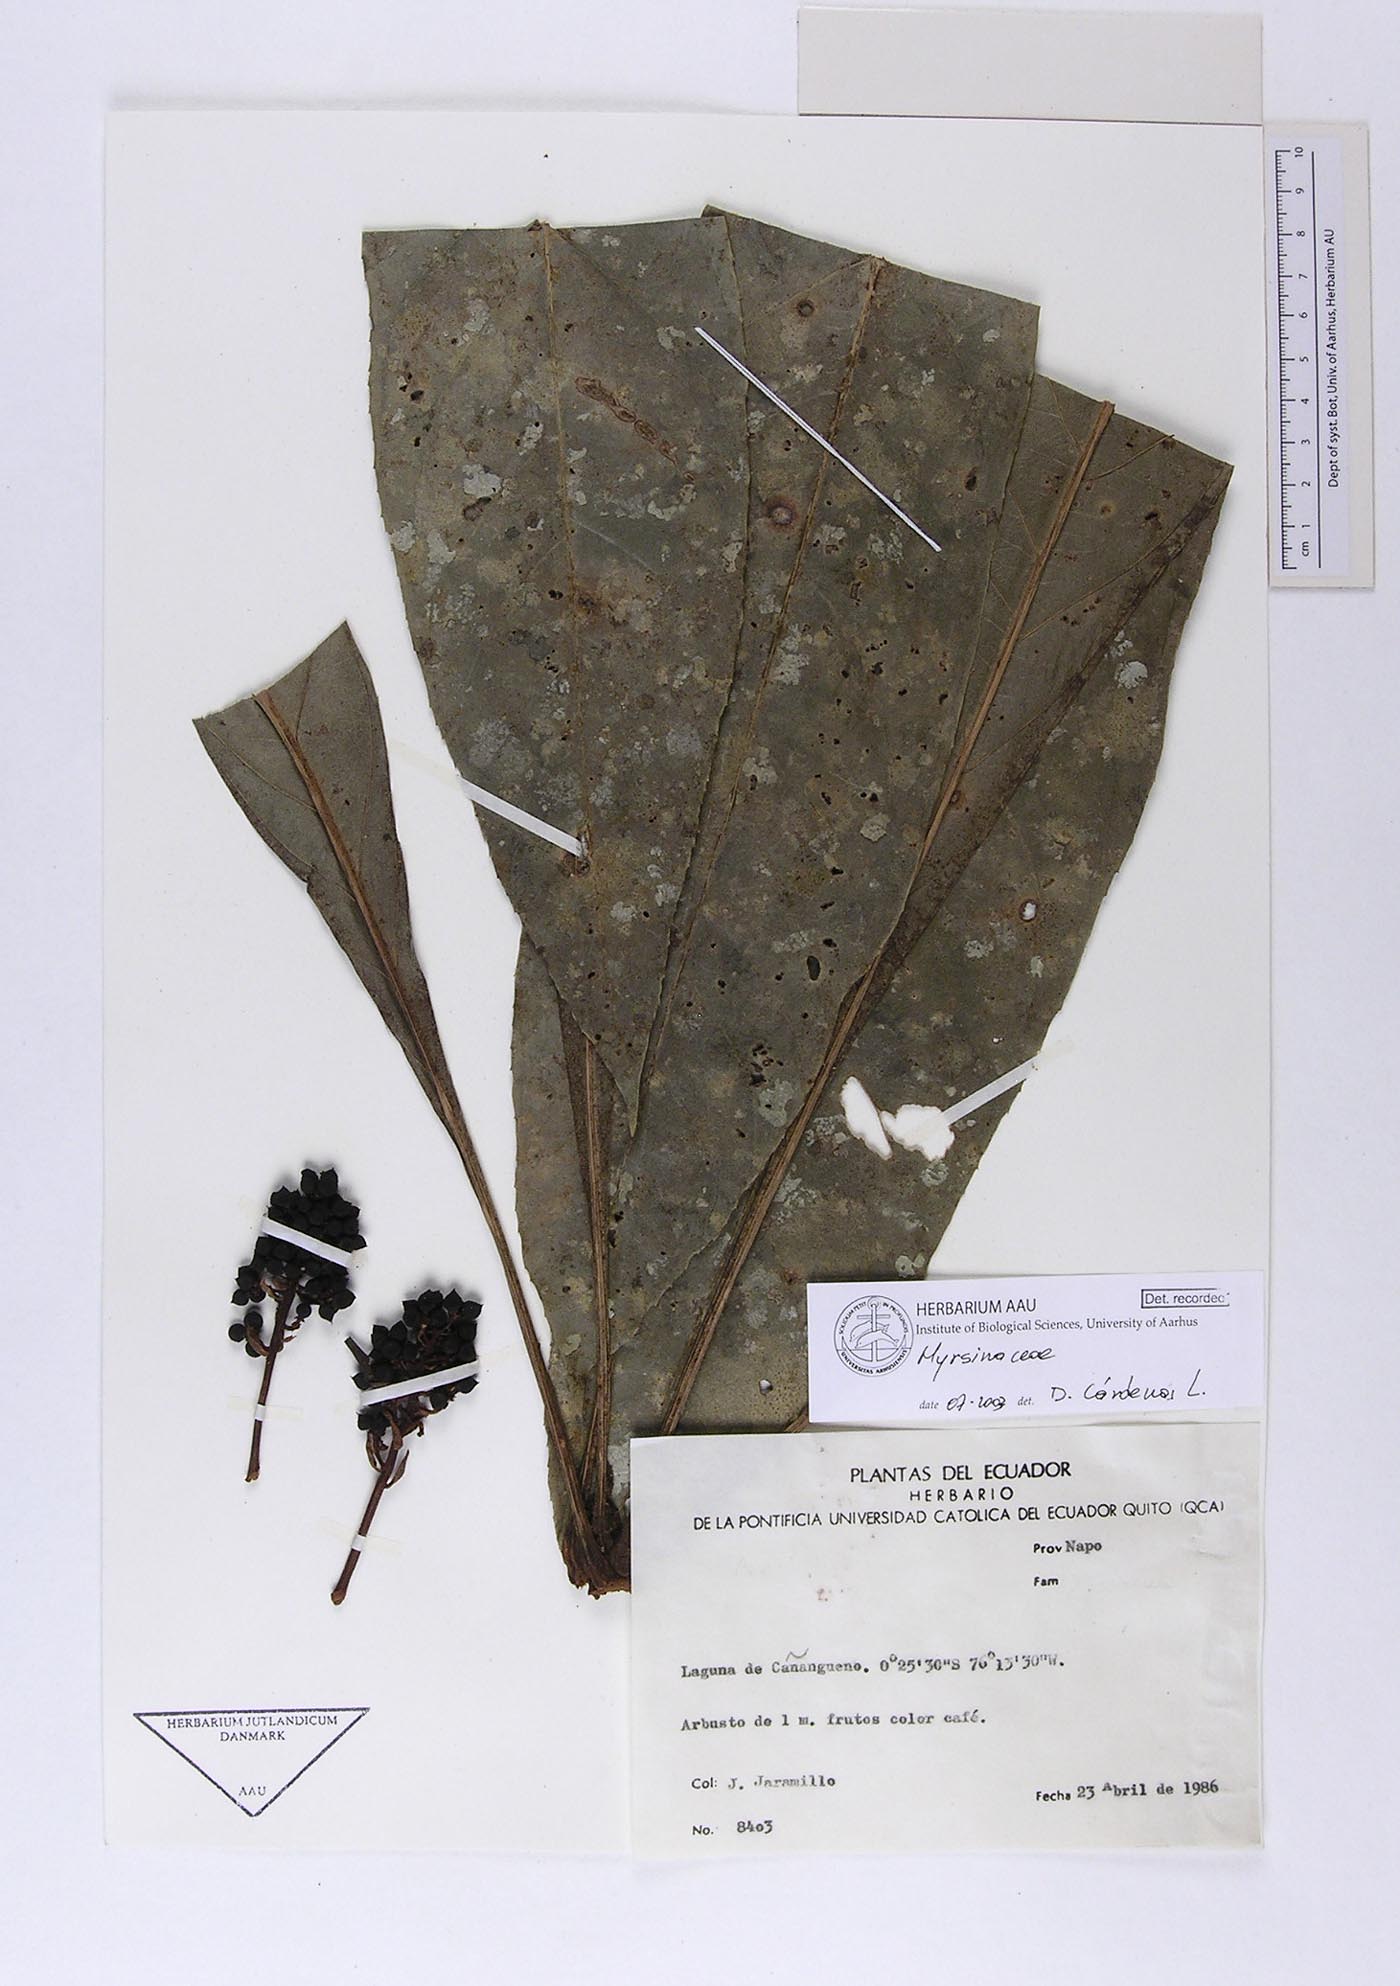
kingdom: Plantae
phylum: Tracheophyta
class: Magnoliopsida
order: Ericales
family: Primulaceae
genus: Cybianthus
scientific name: Cybianthus schlimii
